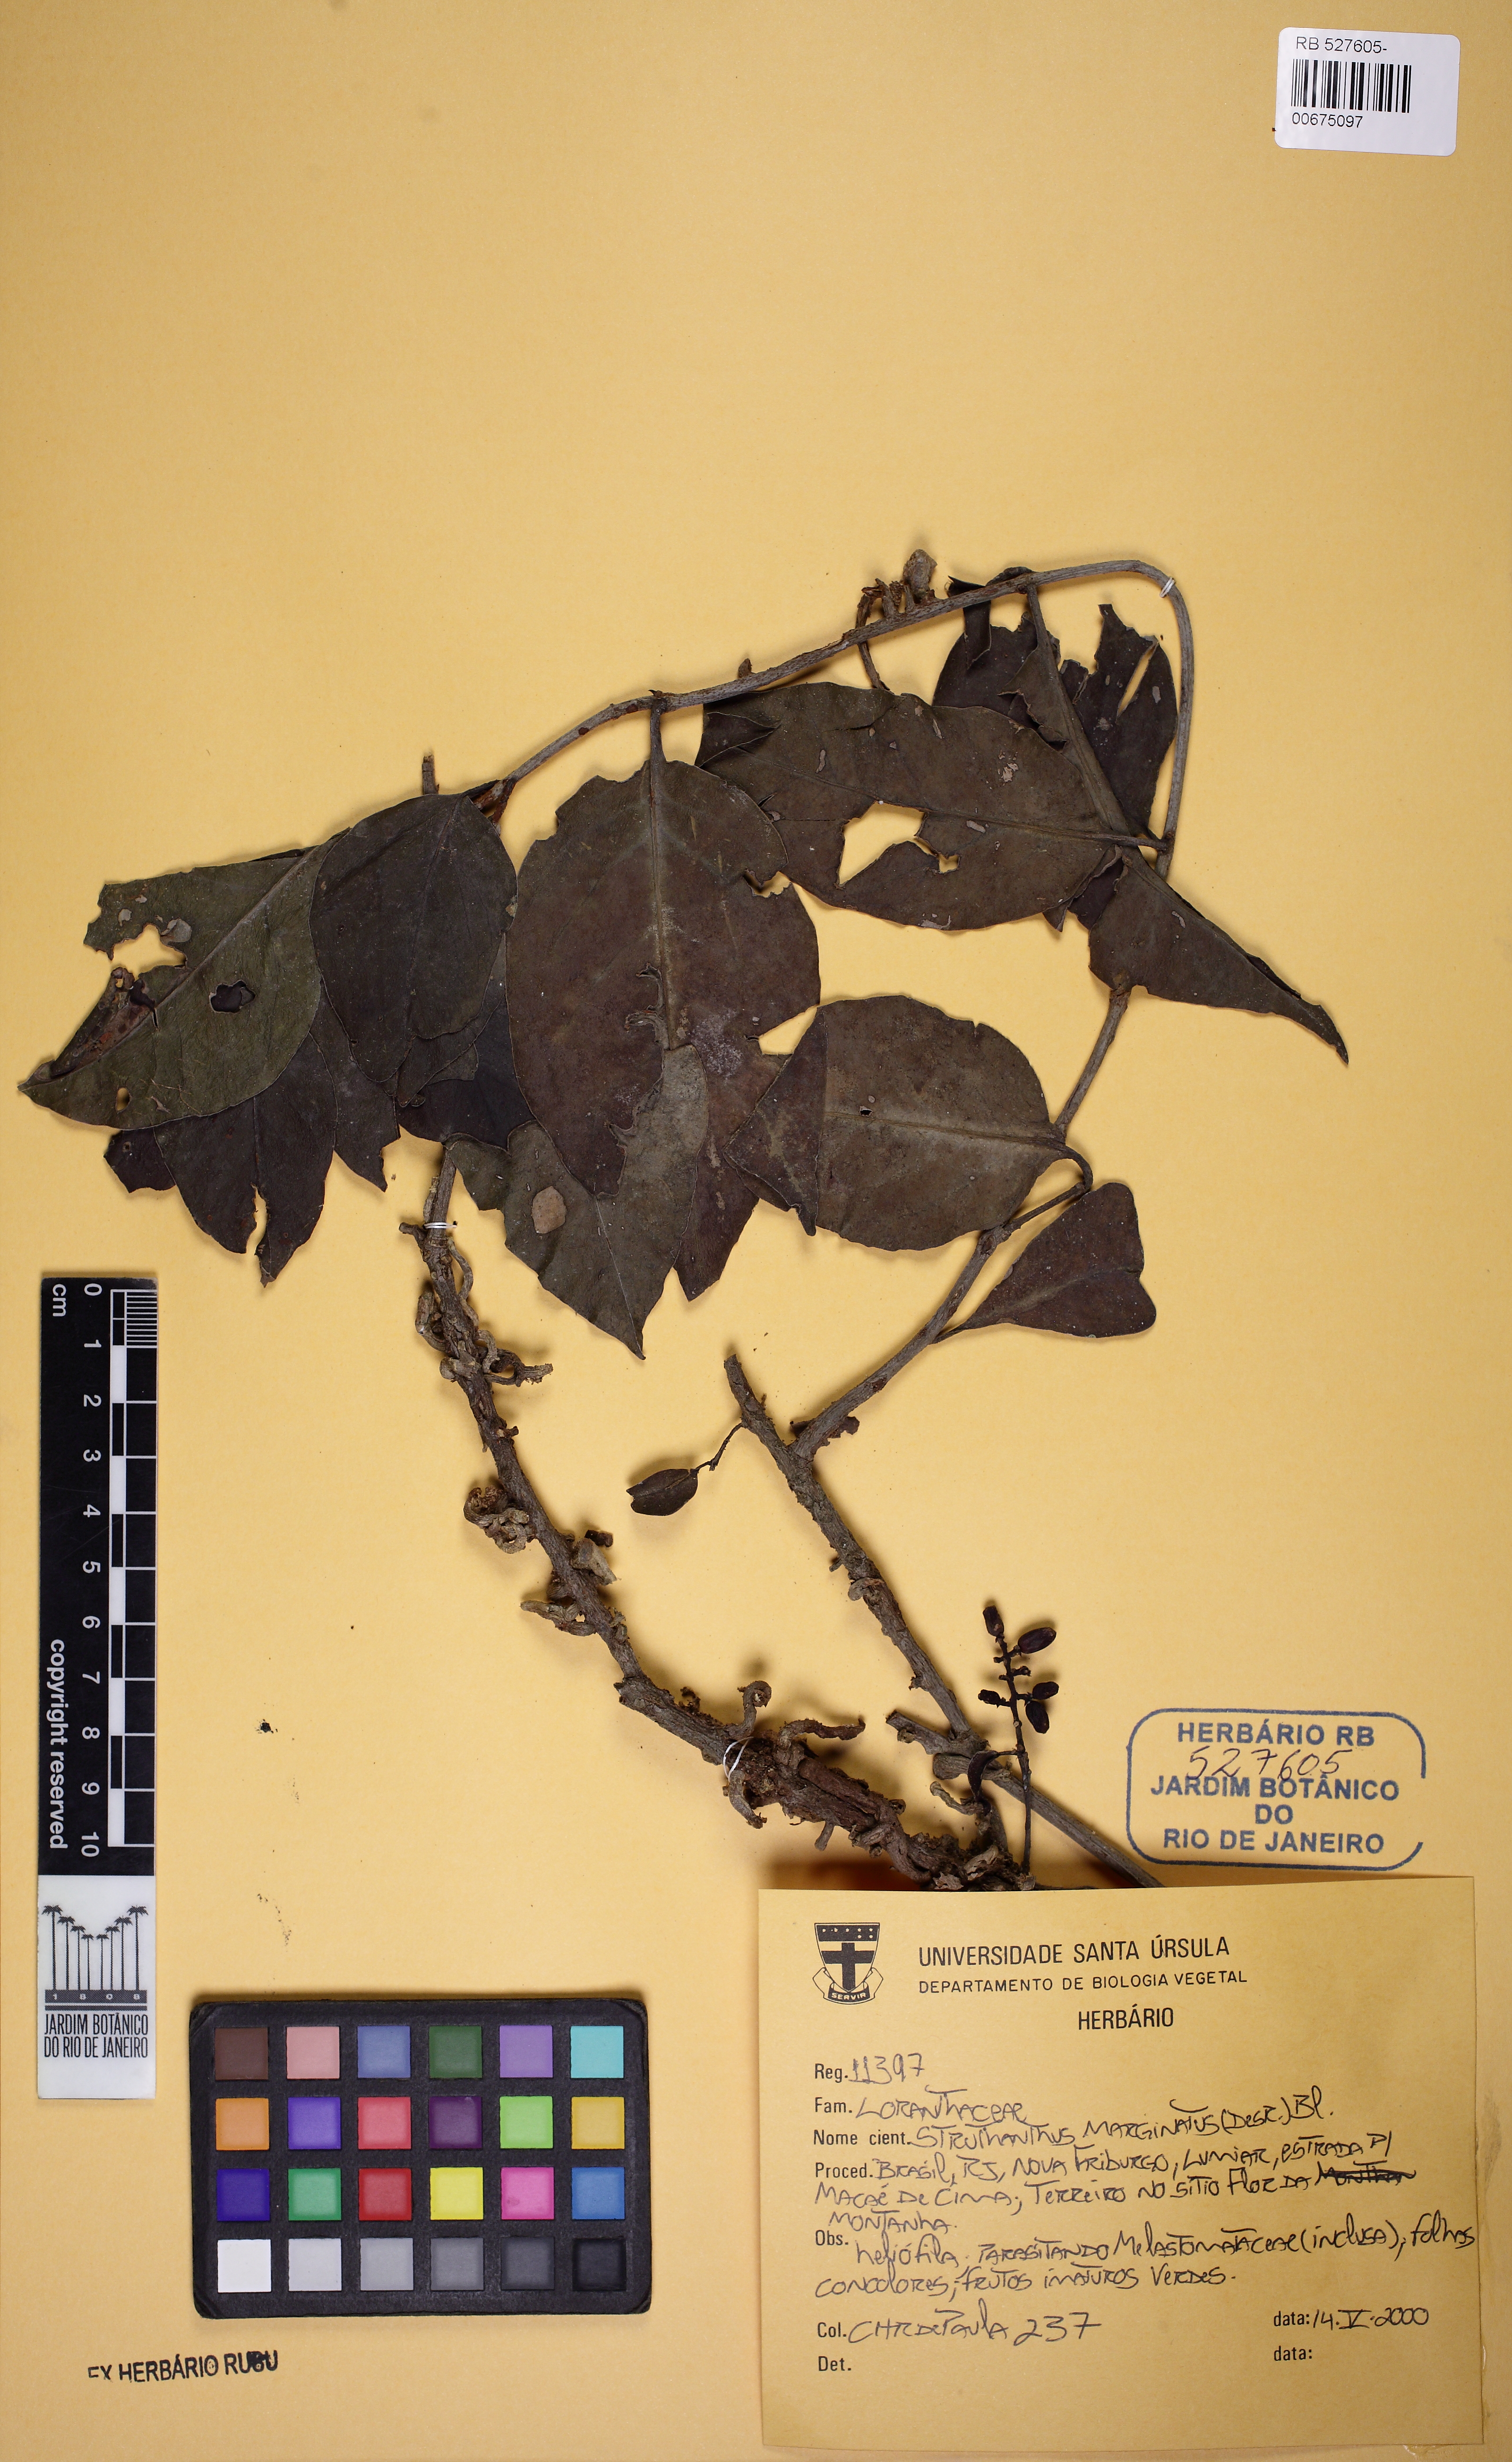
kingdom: Plantae
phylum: Tracheophyta
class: Magnoliopsida
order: Santalales
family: Loranthaceae
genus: Struthanthus
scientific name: Struthanthus marginatus
